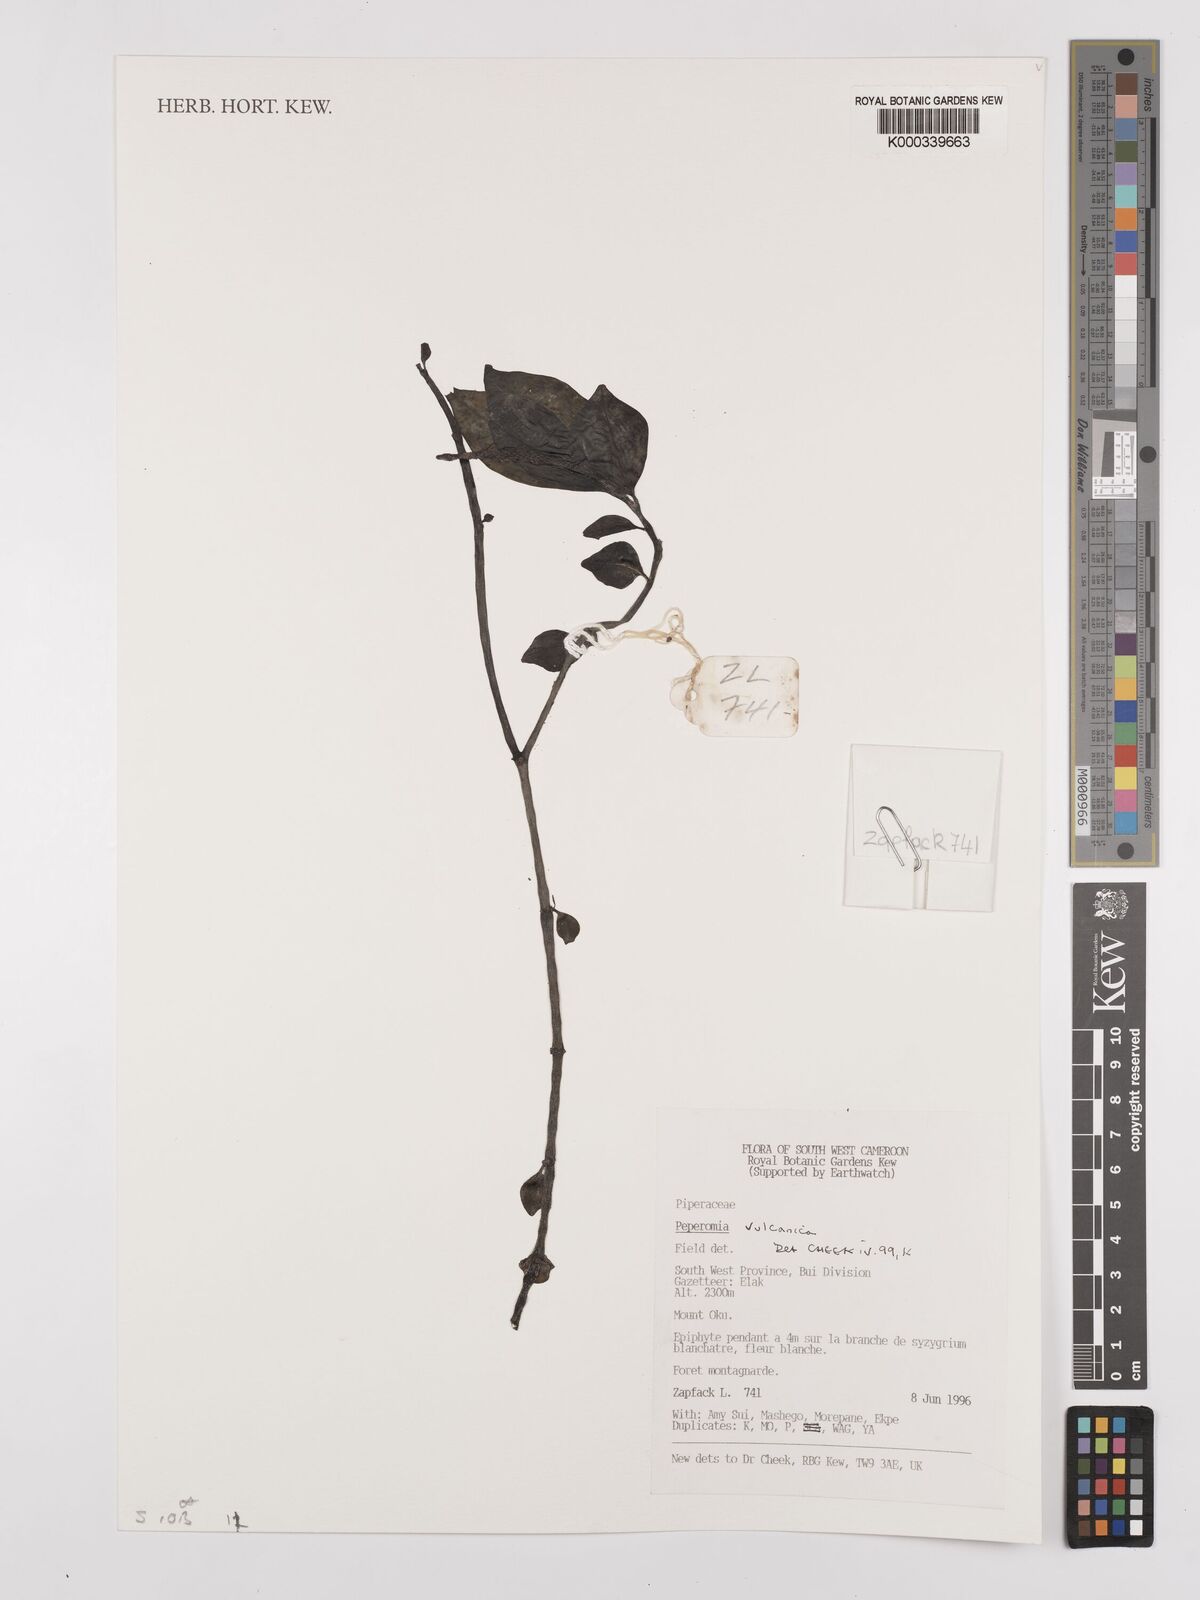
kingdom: Plantae
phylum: Tracheophyta
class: Magnoliopsida
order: Piperales
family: Piperaceae
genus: Peperomia
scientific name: Peperomia vulcanica
